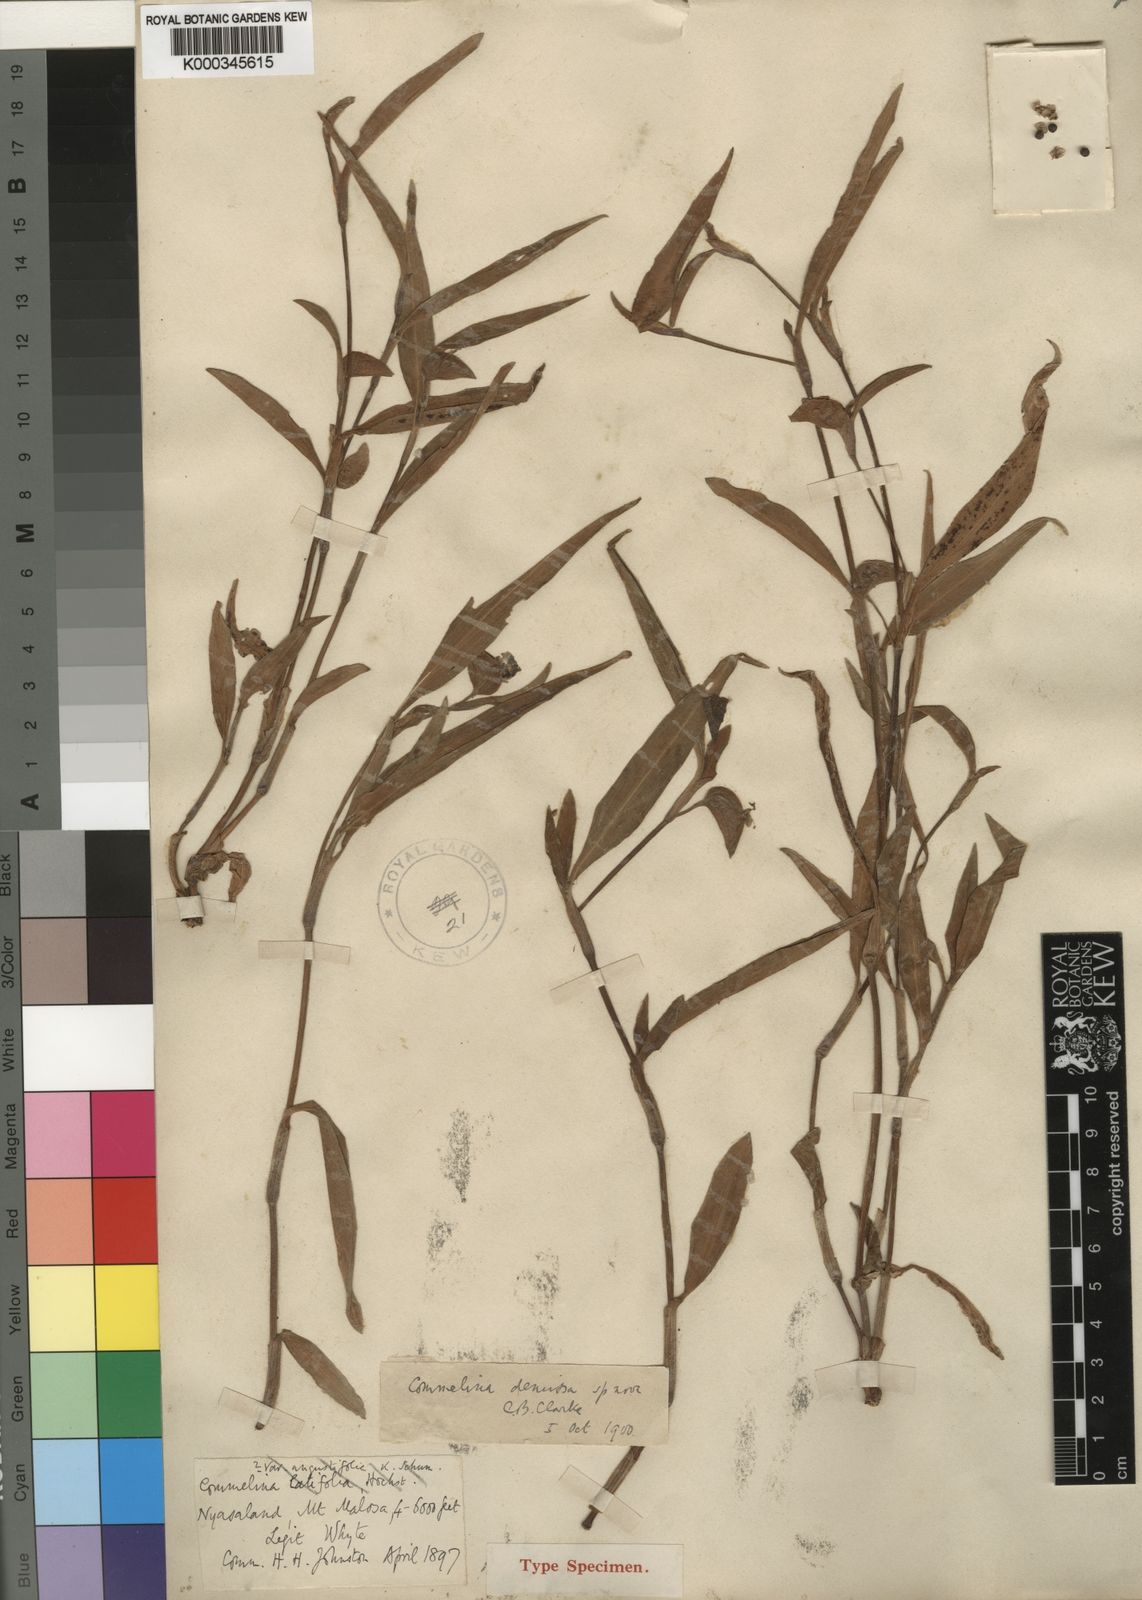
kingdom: Plantae
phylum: Tracheophyta
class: Liliopsida
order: Commelinales
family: Commelinaceae
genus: Commelina
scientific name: Commelina demissa
